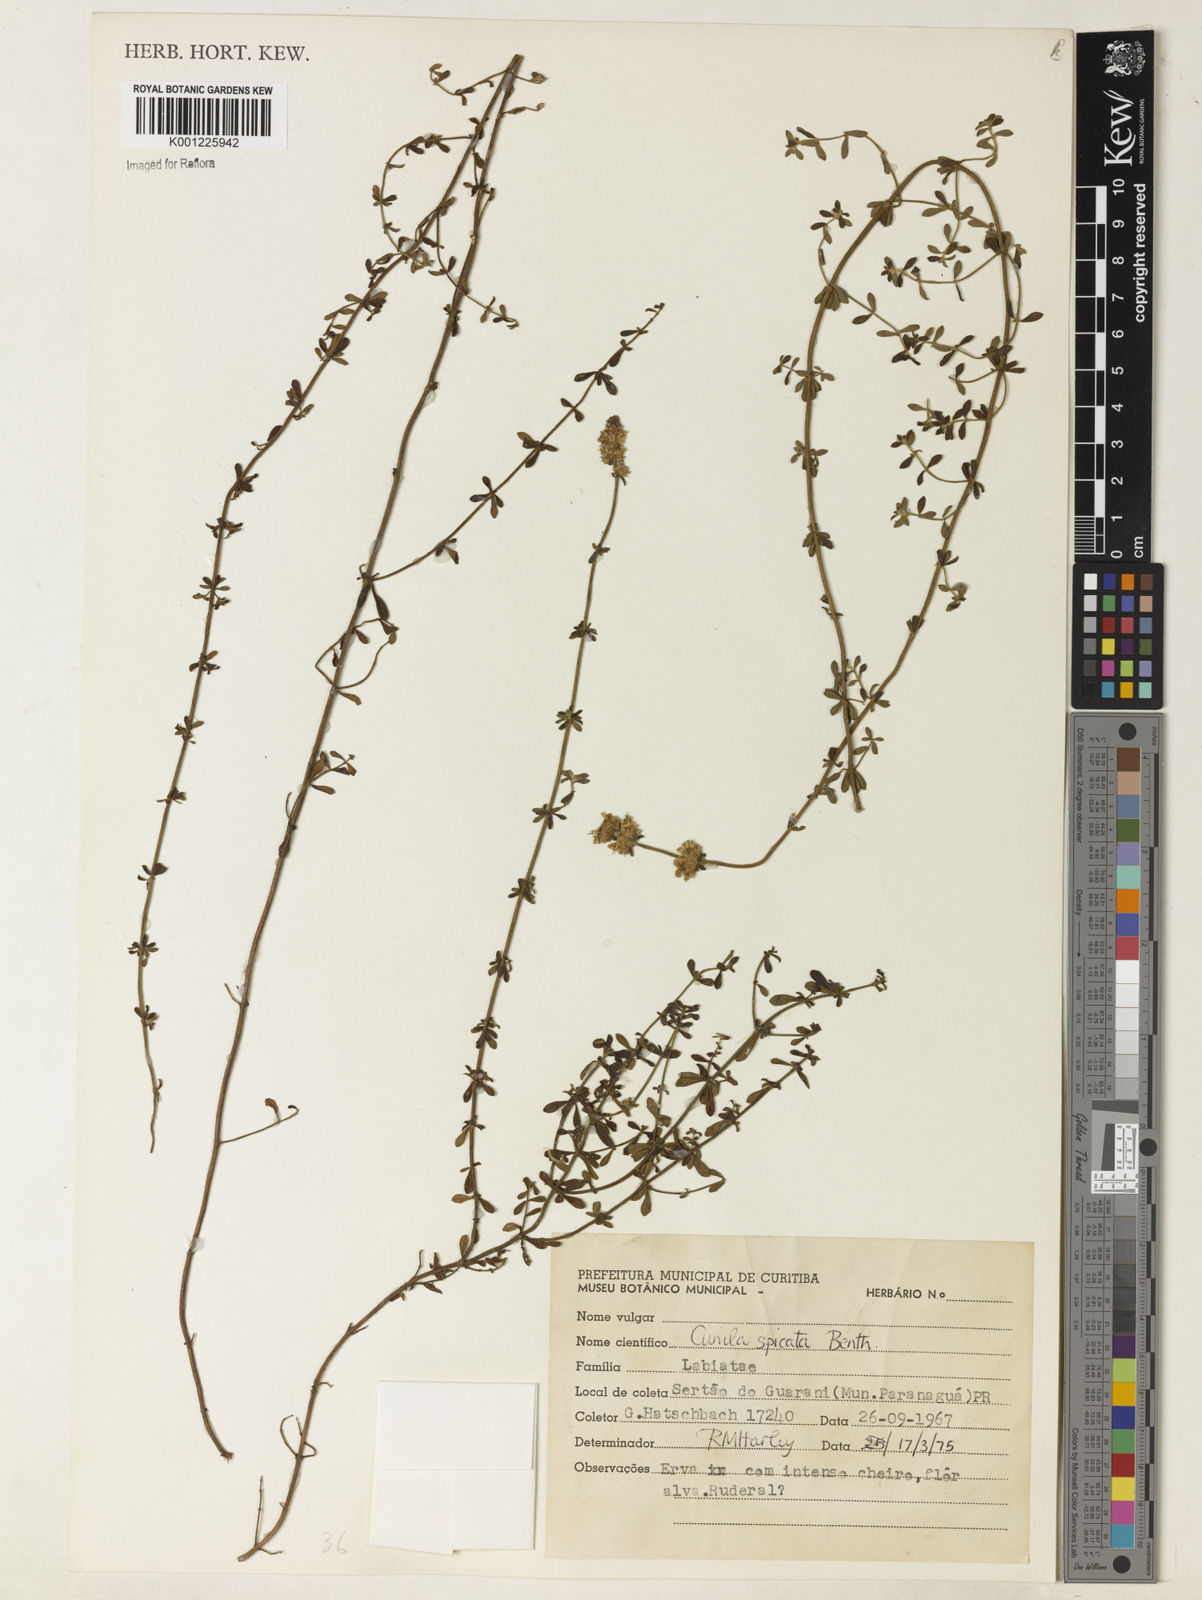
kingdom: Plantae
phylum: Tracheophyta
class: Magnoliopsida
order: Lamiales
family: Lamiaceae
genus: Cunila
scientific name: Cunila spicata
